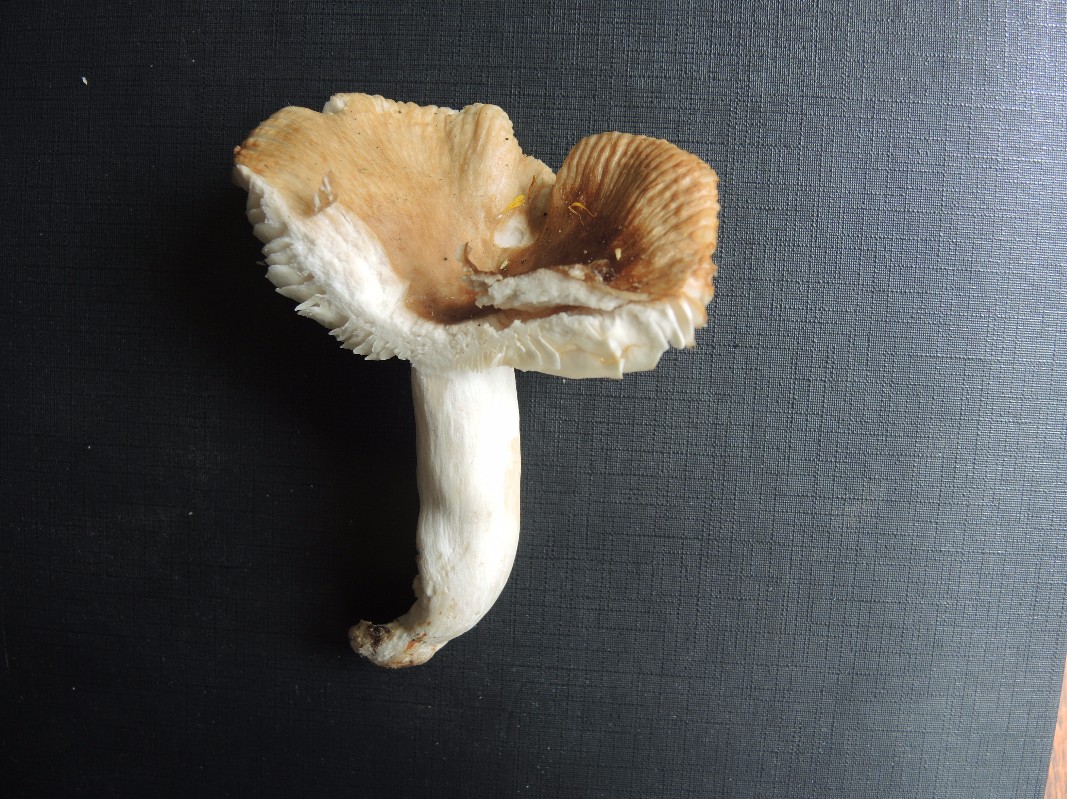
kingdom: Fungi
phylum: Basidiomycota
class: Agaricomycetes
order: Russulales
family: Russulaceae
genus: Russula
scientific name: Russula recondita
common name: mild kam-skørhat
